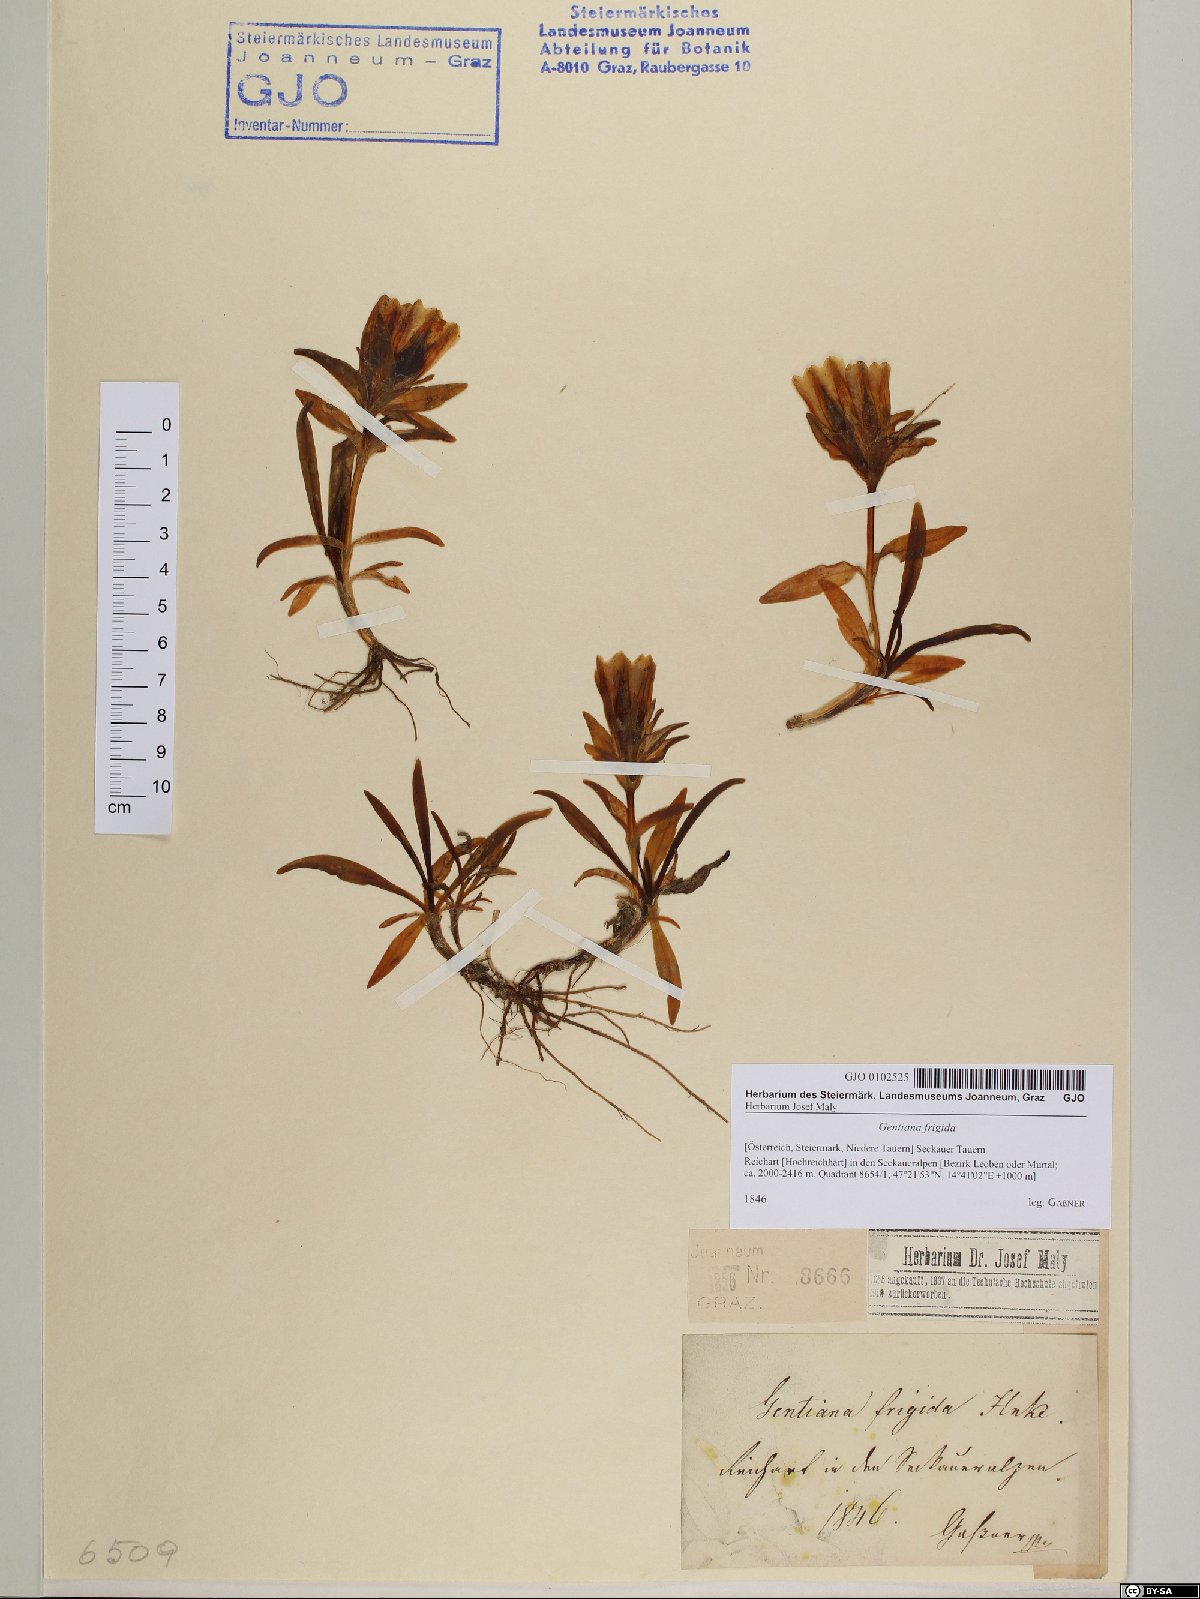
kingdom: Plantae
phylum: Tracheophyta
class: Magnoliopsida
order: Gentianales
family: Gentianaceae
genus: Gentiana
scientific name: Gentiana frigida
